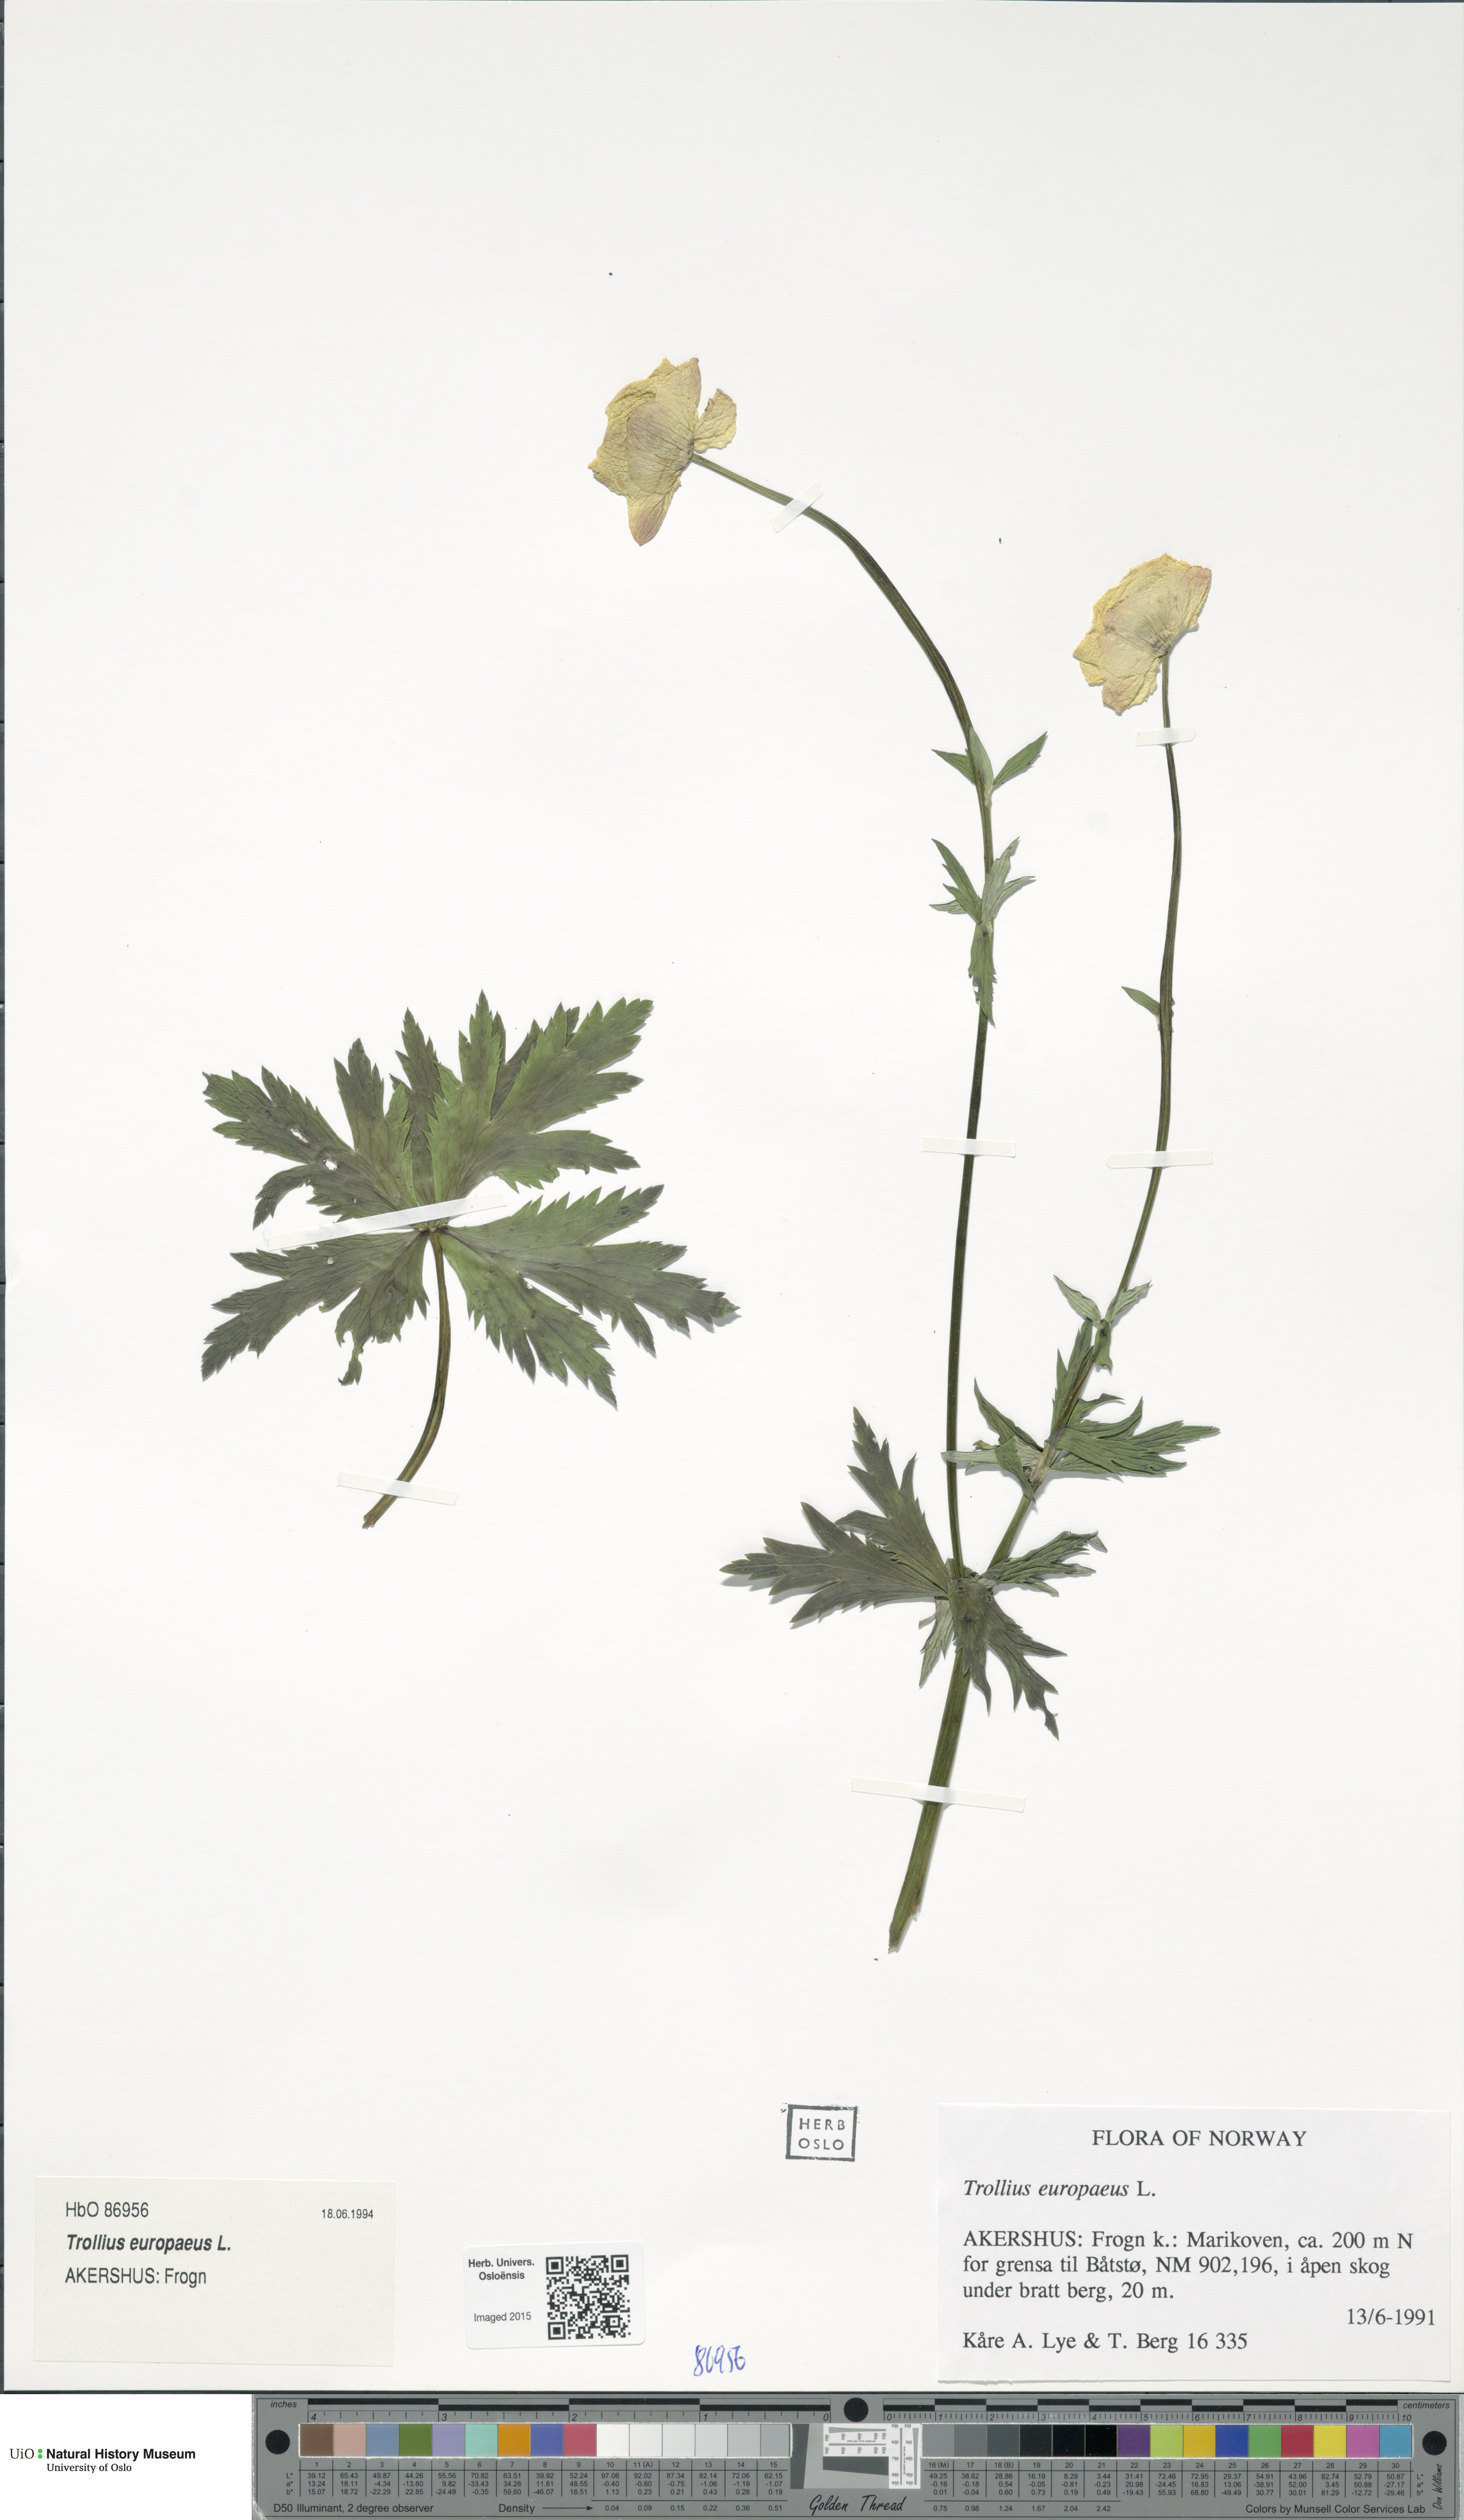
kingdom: Plantae
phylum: Tracheophyta
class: Magnoliopsida
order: Ranunculales
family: Ranunculaceae
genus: Trollius
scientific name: Trollius europaeus
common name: European globeflower
